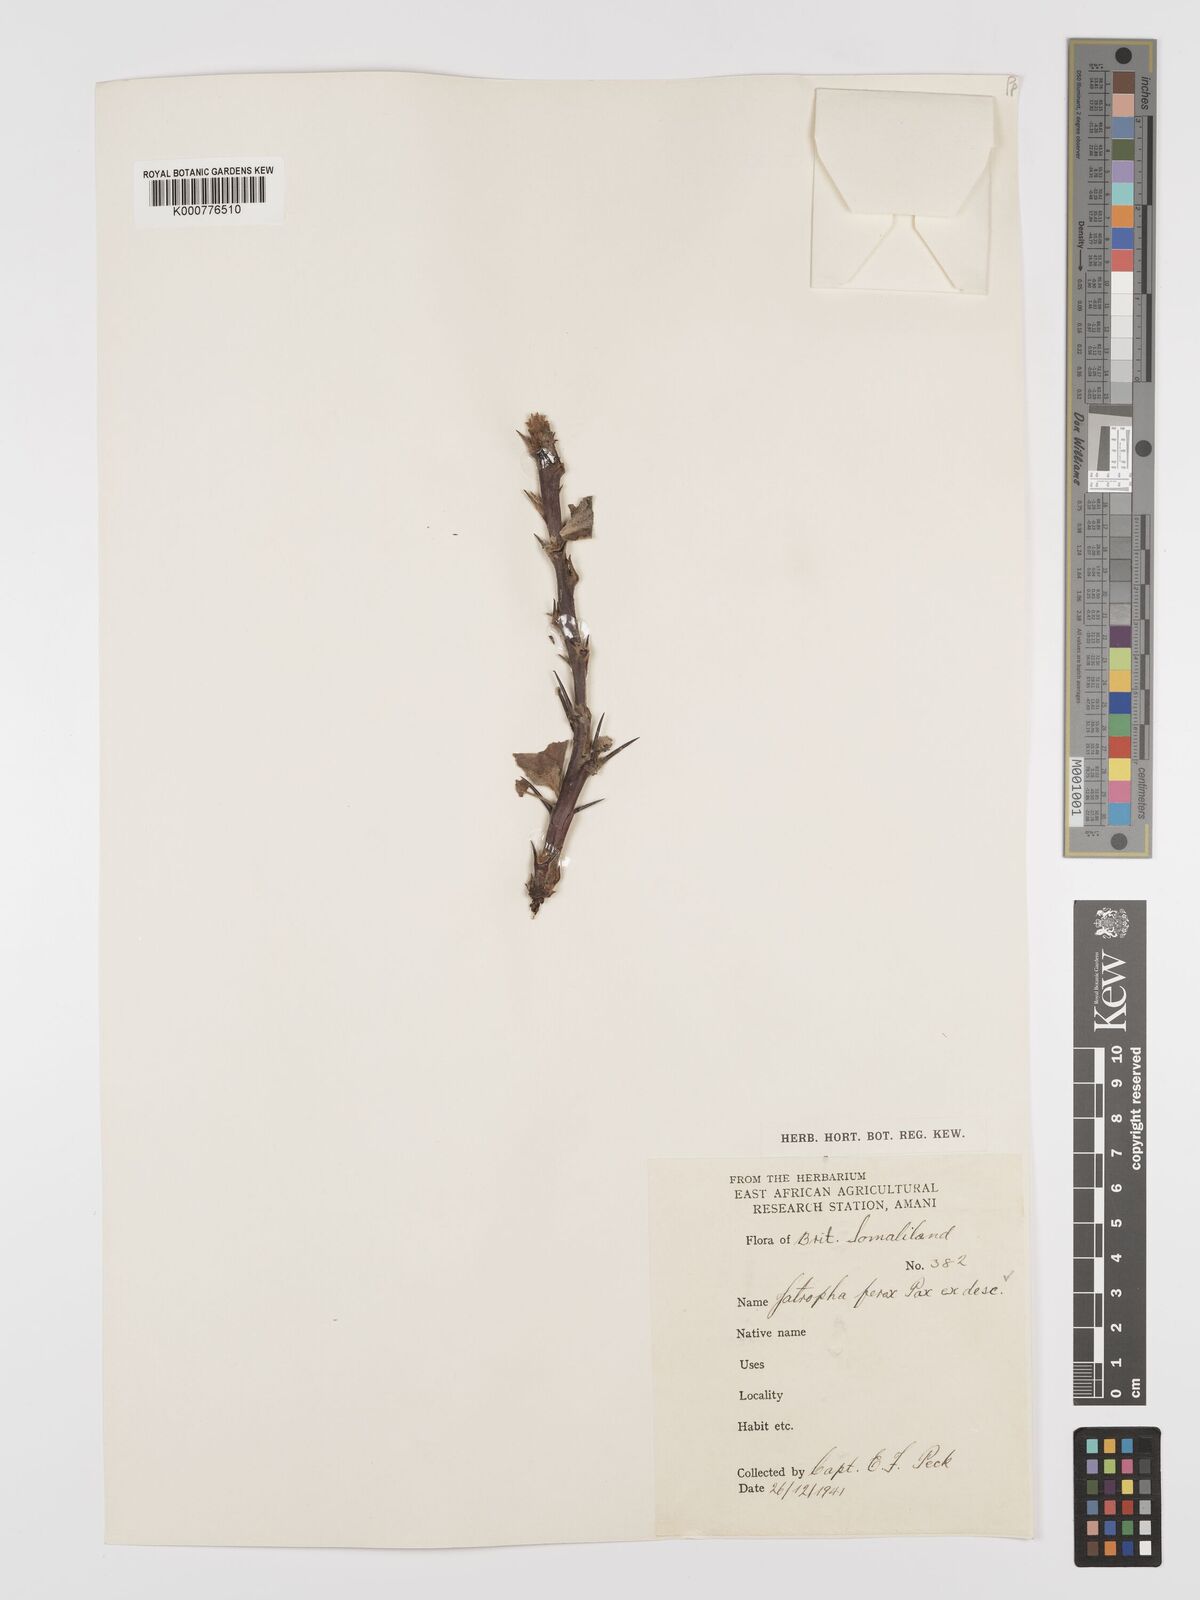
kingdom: Plantae
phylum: Tracheophyta
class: Magnoliopsida
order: Malpighiales
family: Euphorbiaceae
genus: Jatropha
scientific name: Jatropha dichtar
